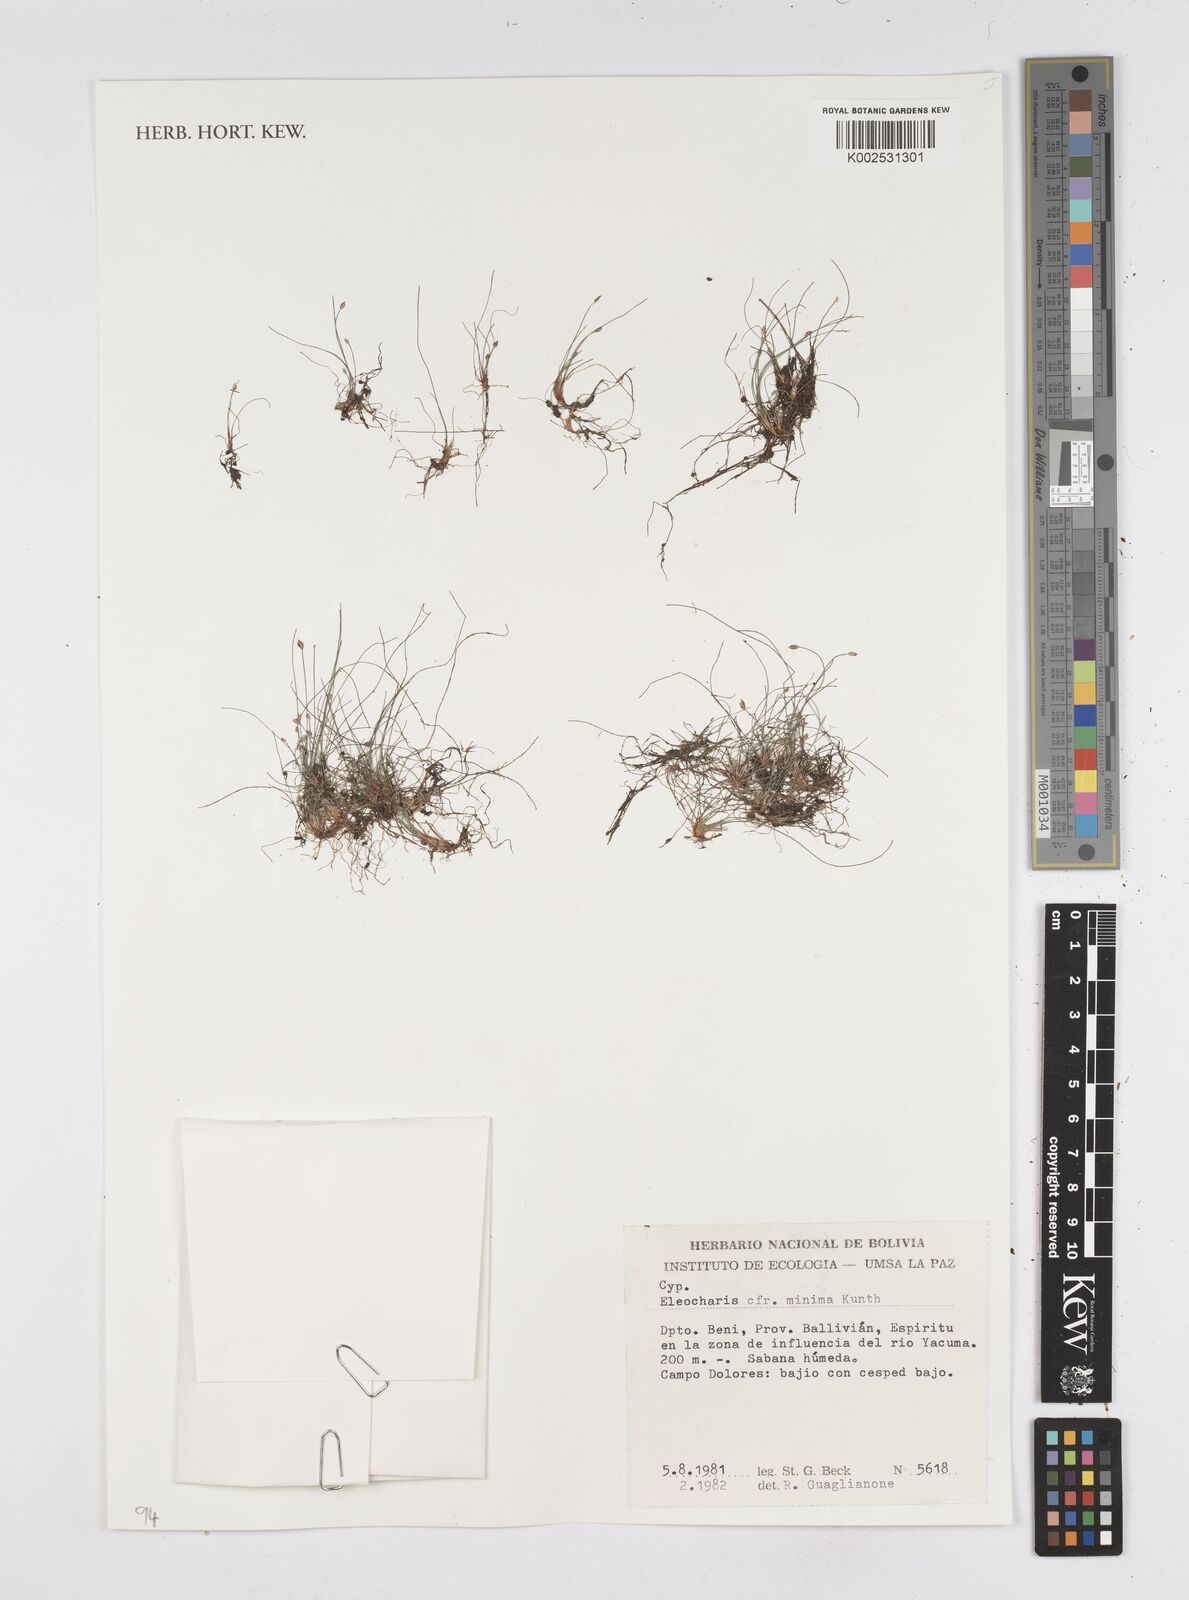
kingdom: Plantae
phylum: Tracheophyta
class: Liliopsida
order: Poales
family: Cyperaceae
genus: Eleocharis
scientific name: Eleocharis minima
